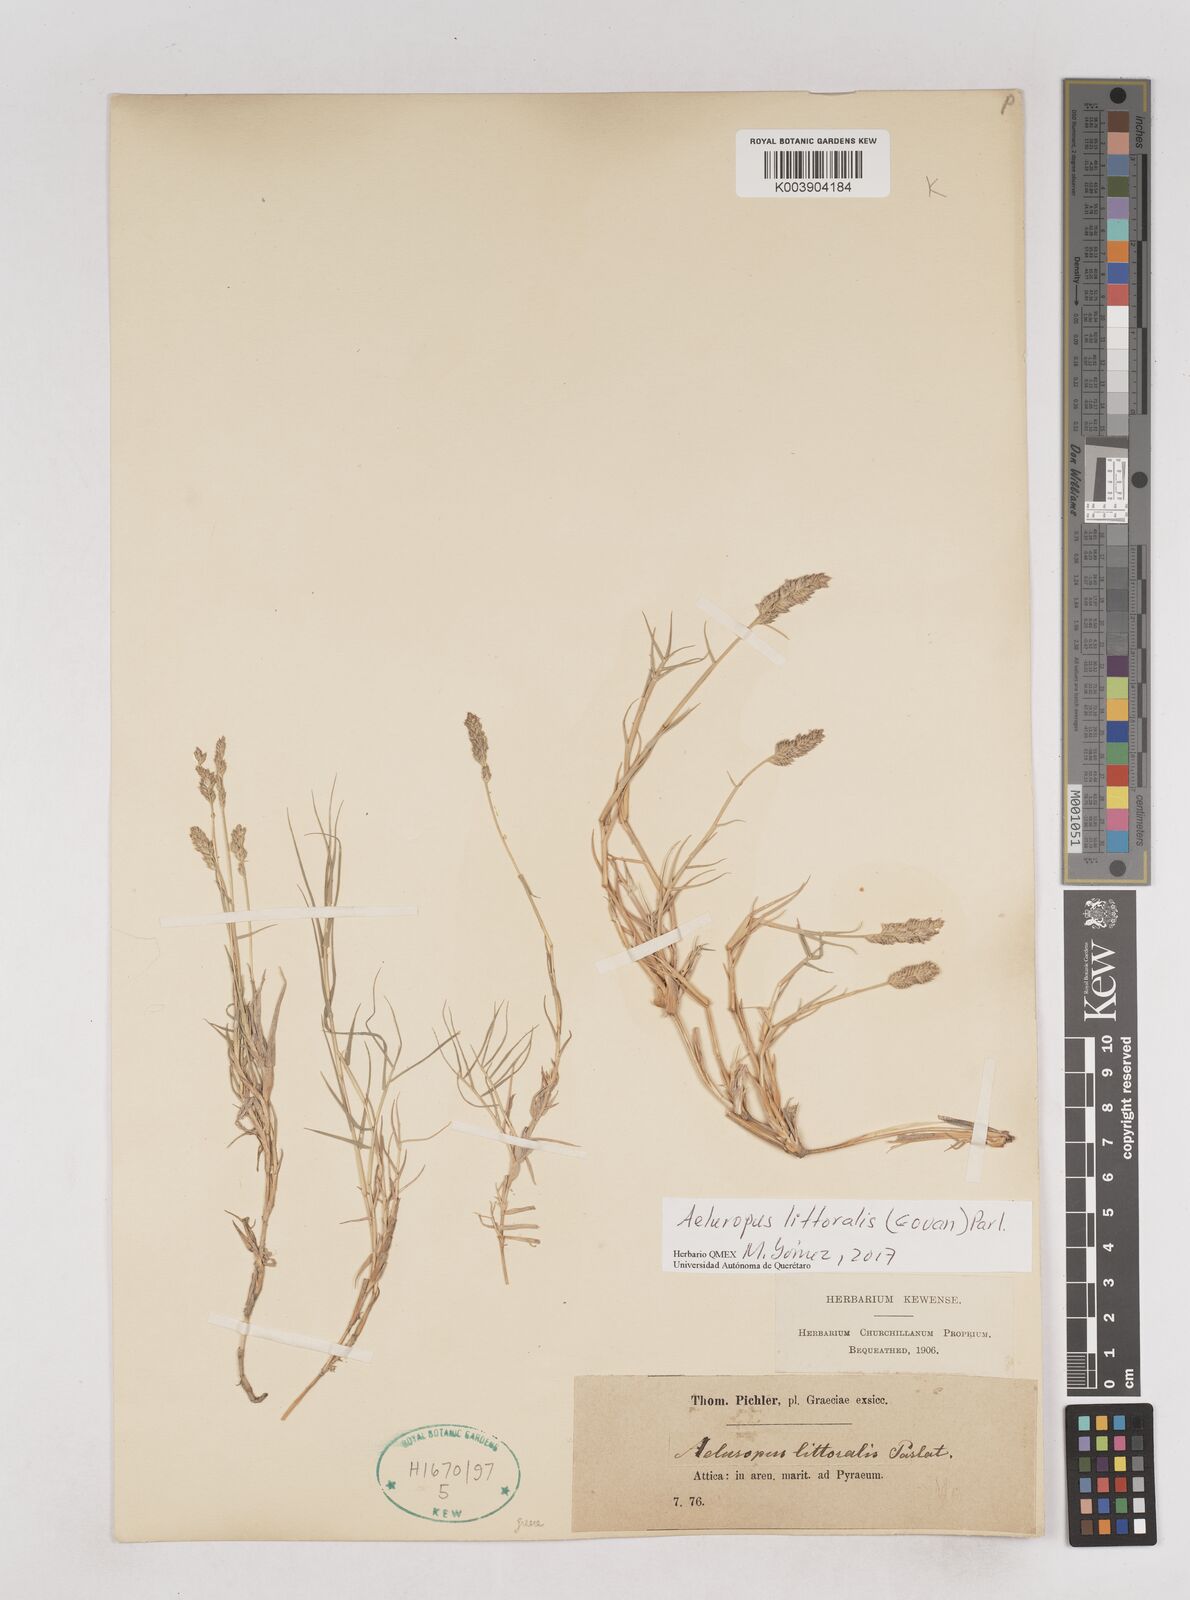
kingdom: Plantae
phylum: Tracheophyta
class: Liliopsida
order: Poales
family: Poaceae
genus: Aeluropus
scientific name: Aeluropus littoralis
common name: Indian walnut
